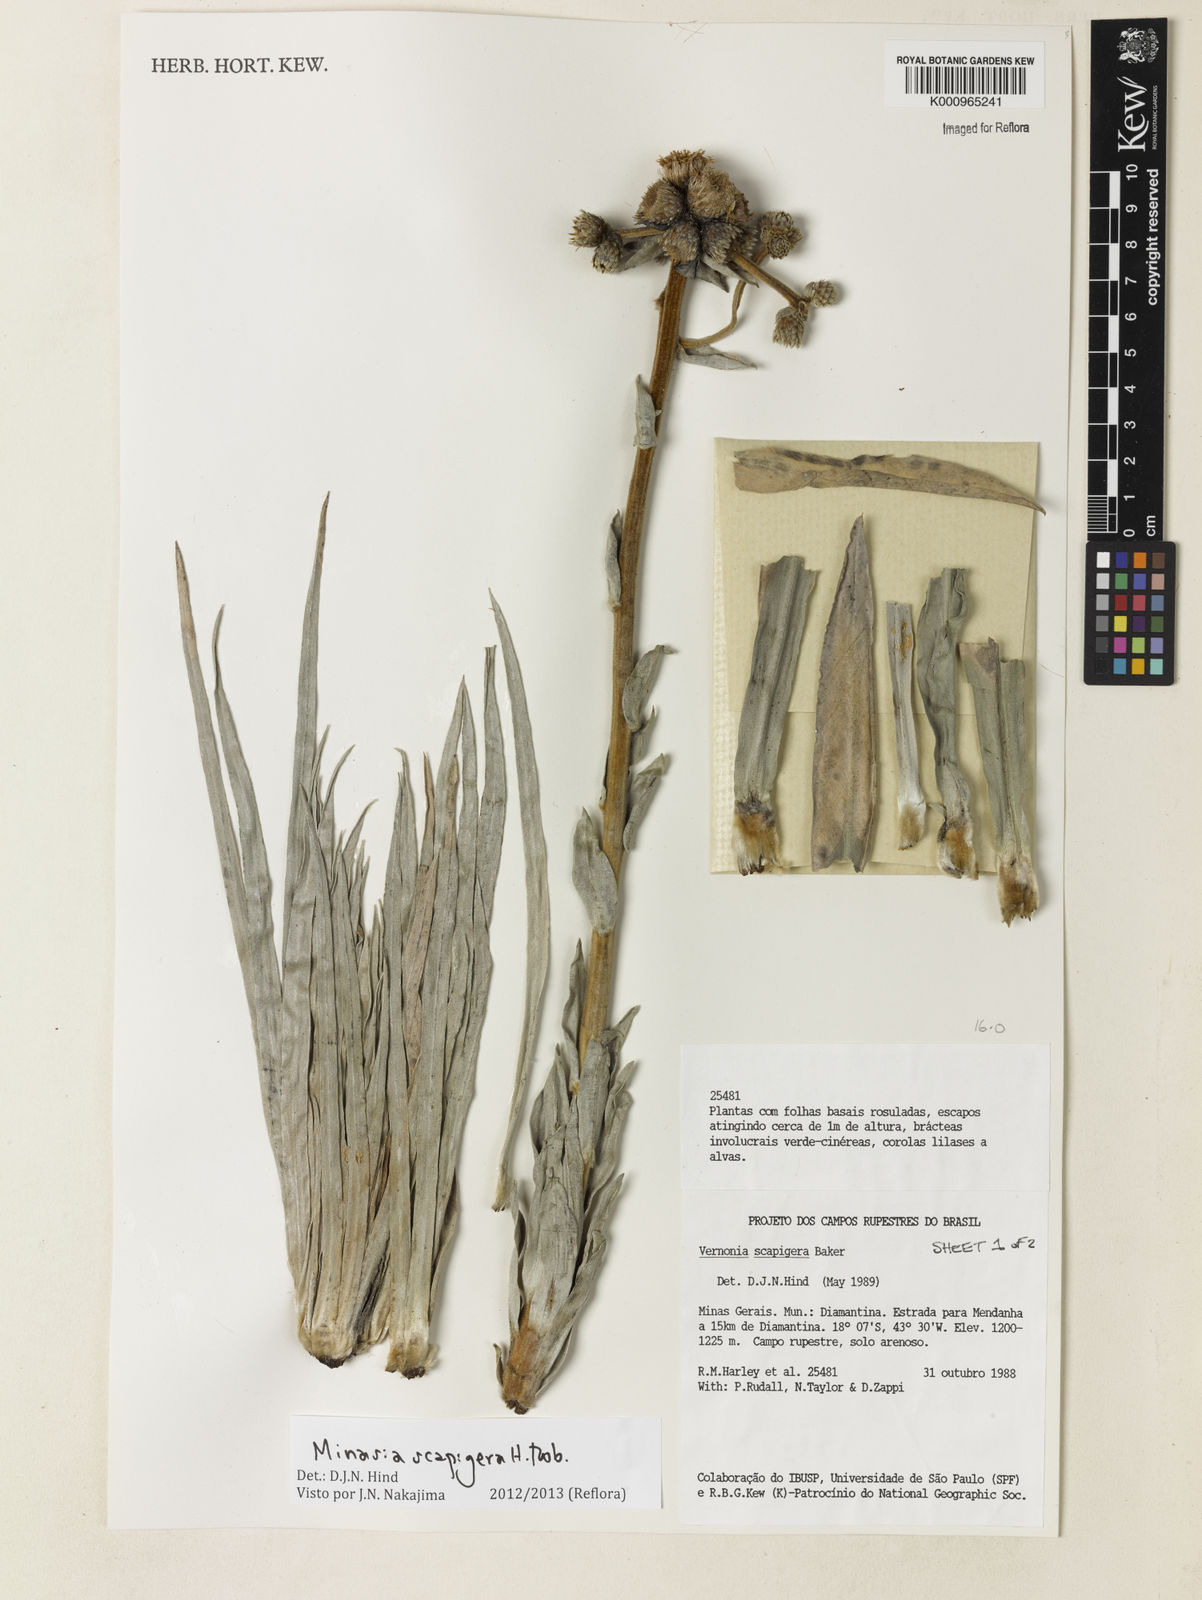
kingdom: Plantae
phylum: Tracheophyta
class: Magnoliopsida
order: Asterales
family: Asteraceae
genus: Minasia
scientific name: Minasia scapigera
